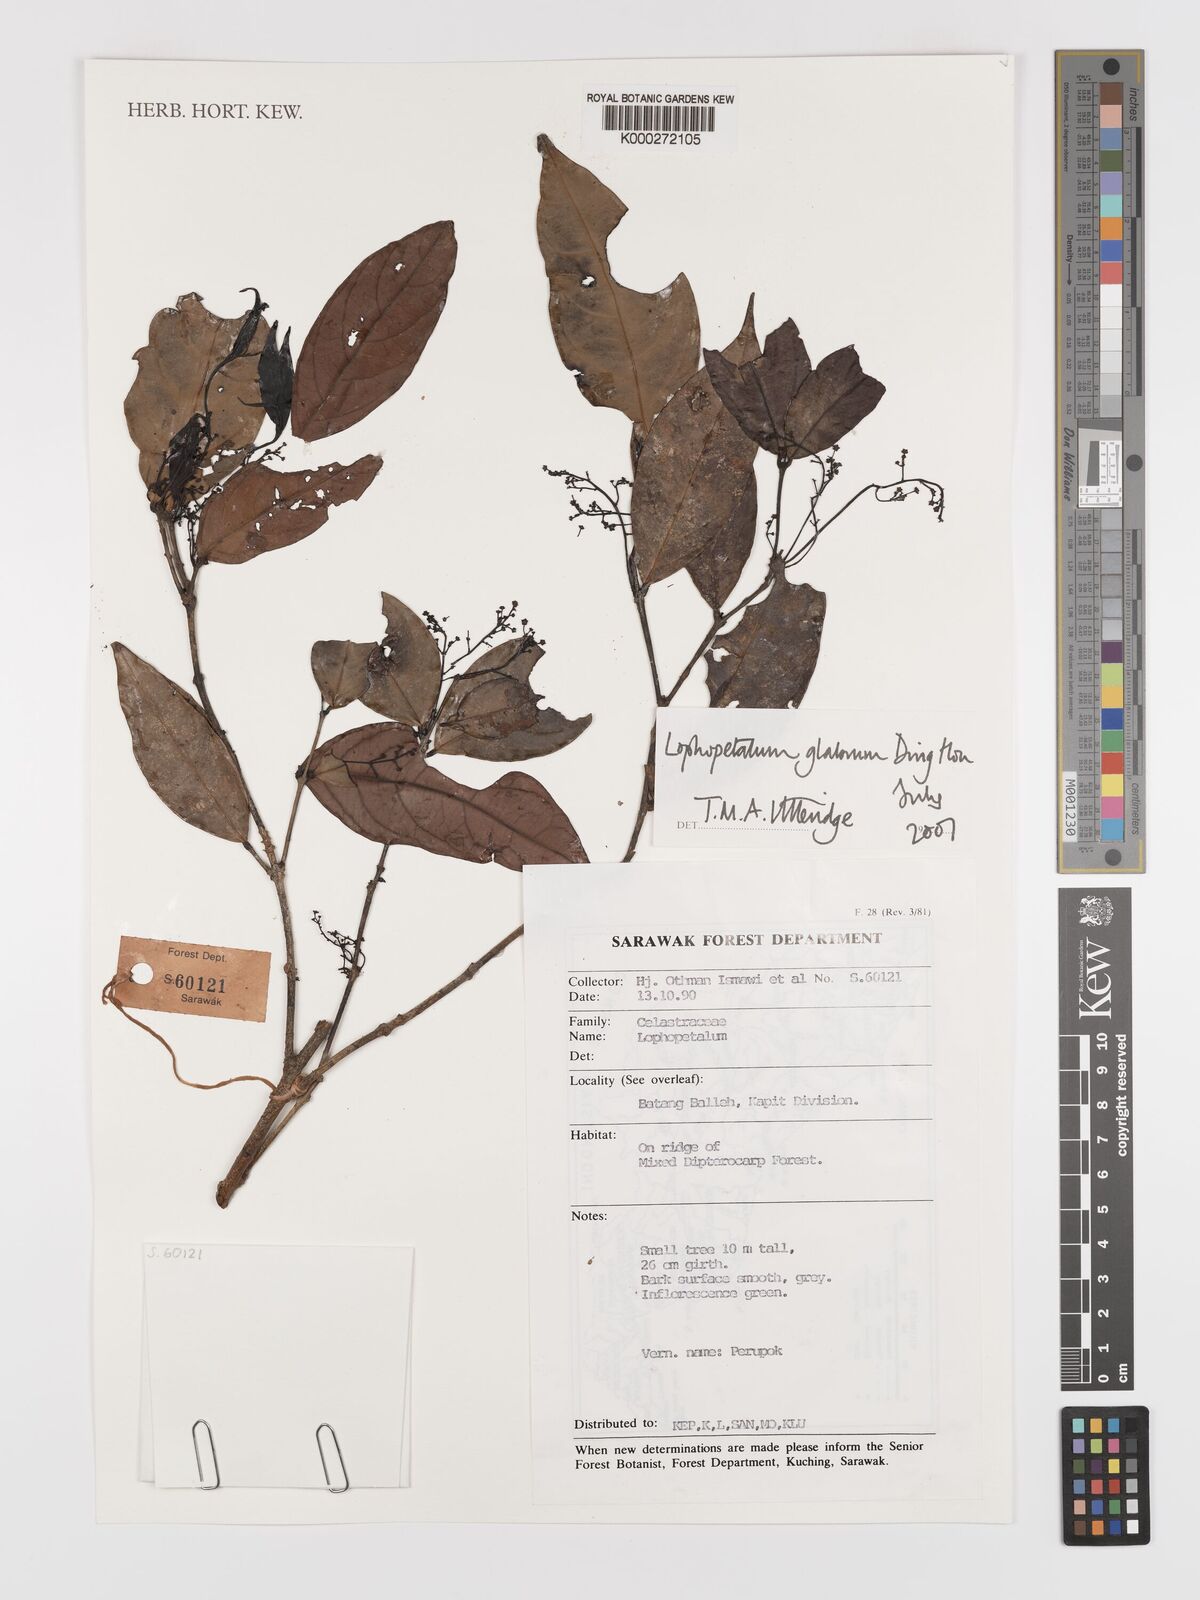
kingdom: Plantae
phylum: Tracheophyta
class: Magnoliopsida
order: Celastrales
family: Celastraceae
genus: Lophopetalum
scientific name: Lophopetalum glabrum
